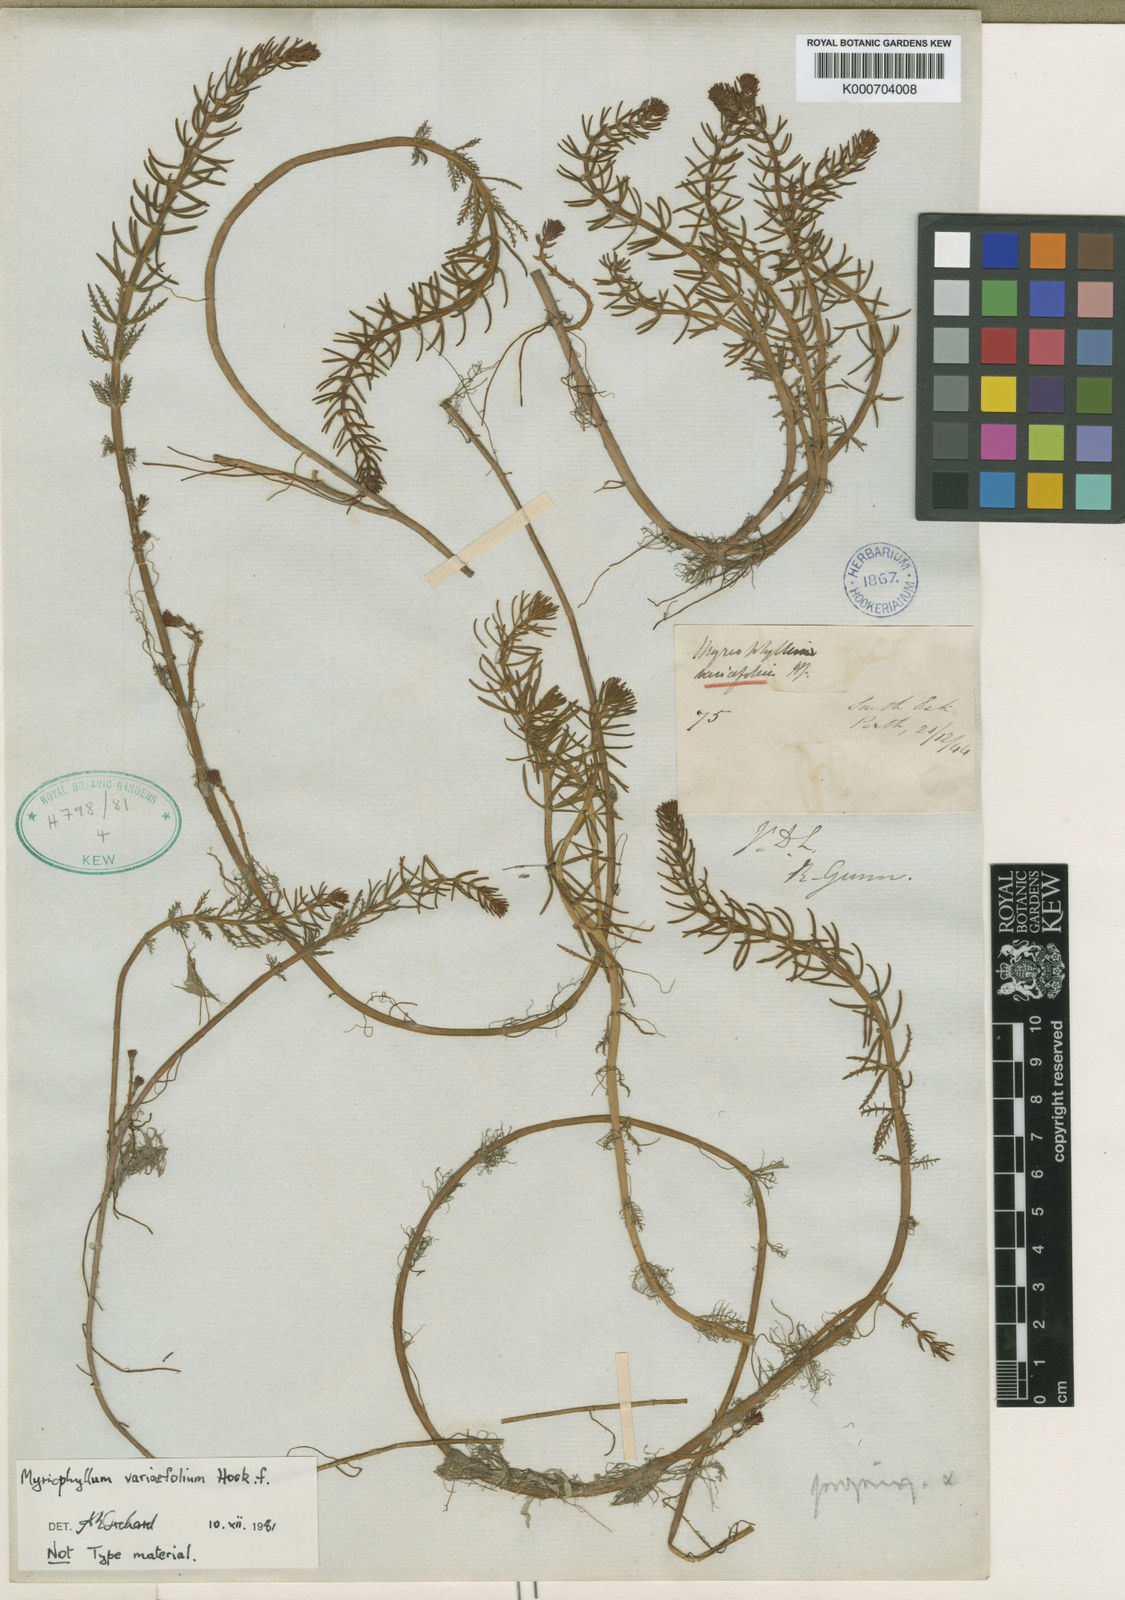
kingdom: Plantae
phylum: Tracheophyta
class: Magnoliopsida
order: Saxifragales
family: Haloragaceae
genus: Myriophyllum
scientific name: Myriophyllum
